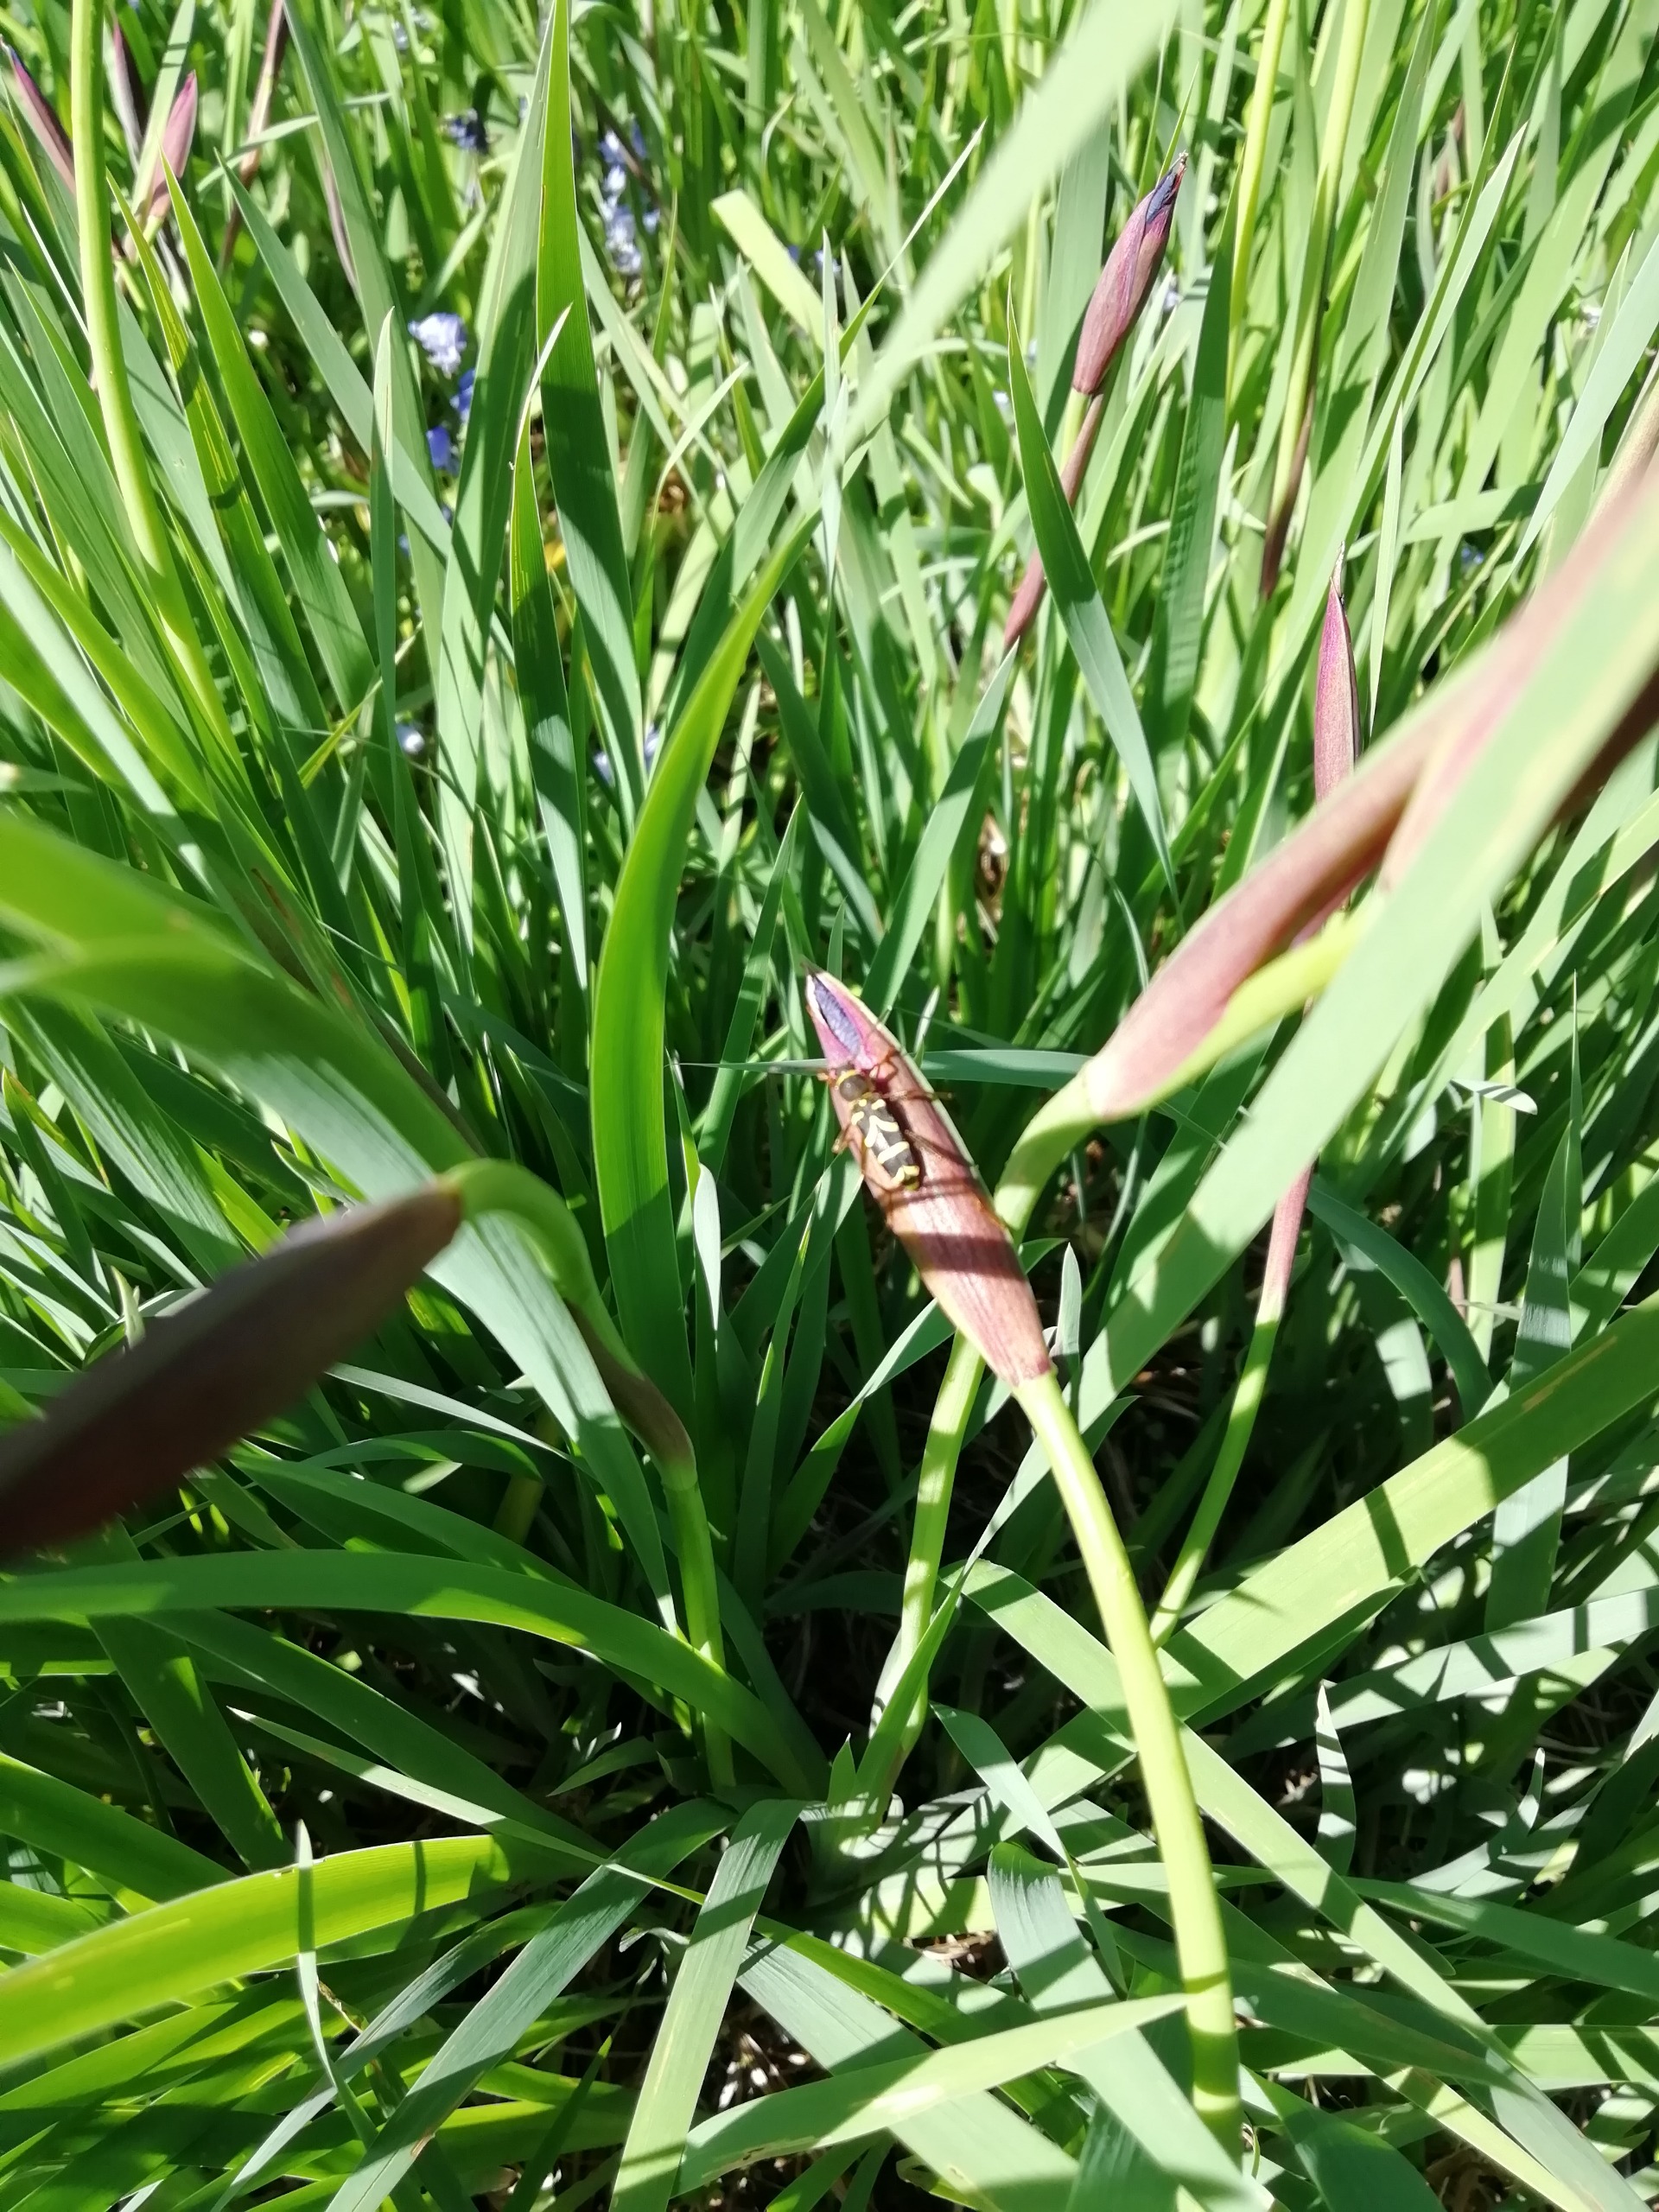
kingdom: Animalia
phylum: Arthropoda
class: Insecta
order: Coleoptera
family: Cerambycidae
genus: Clytus
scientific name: Clytus arietis
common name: Lille hvepsebuk
